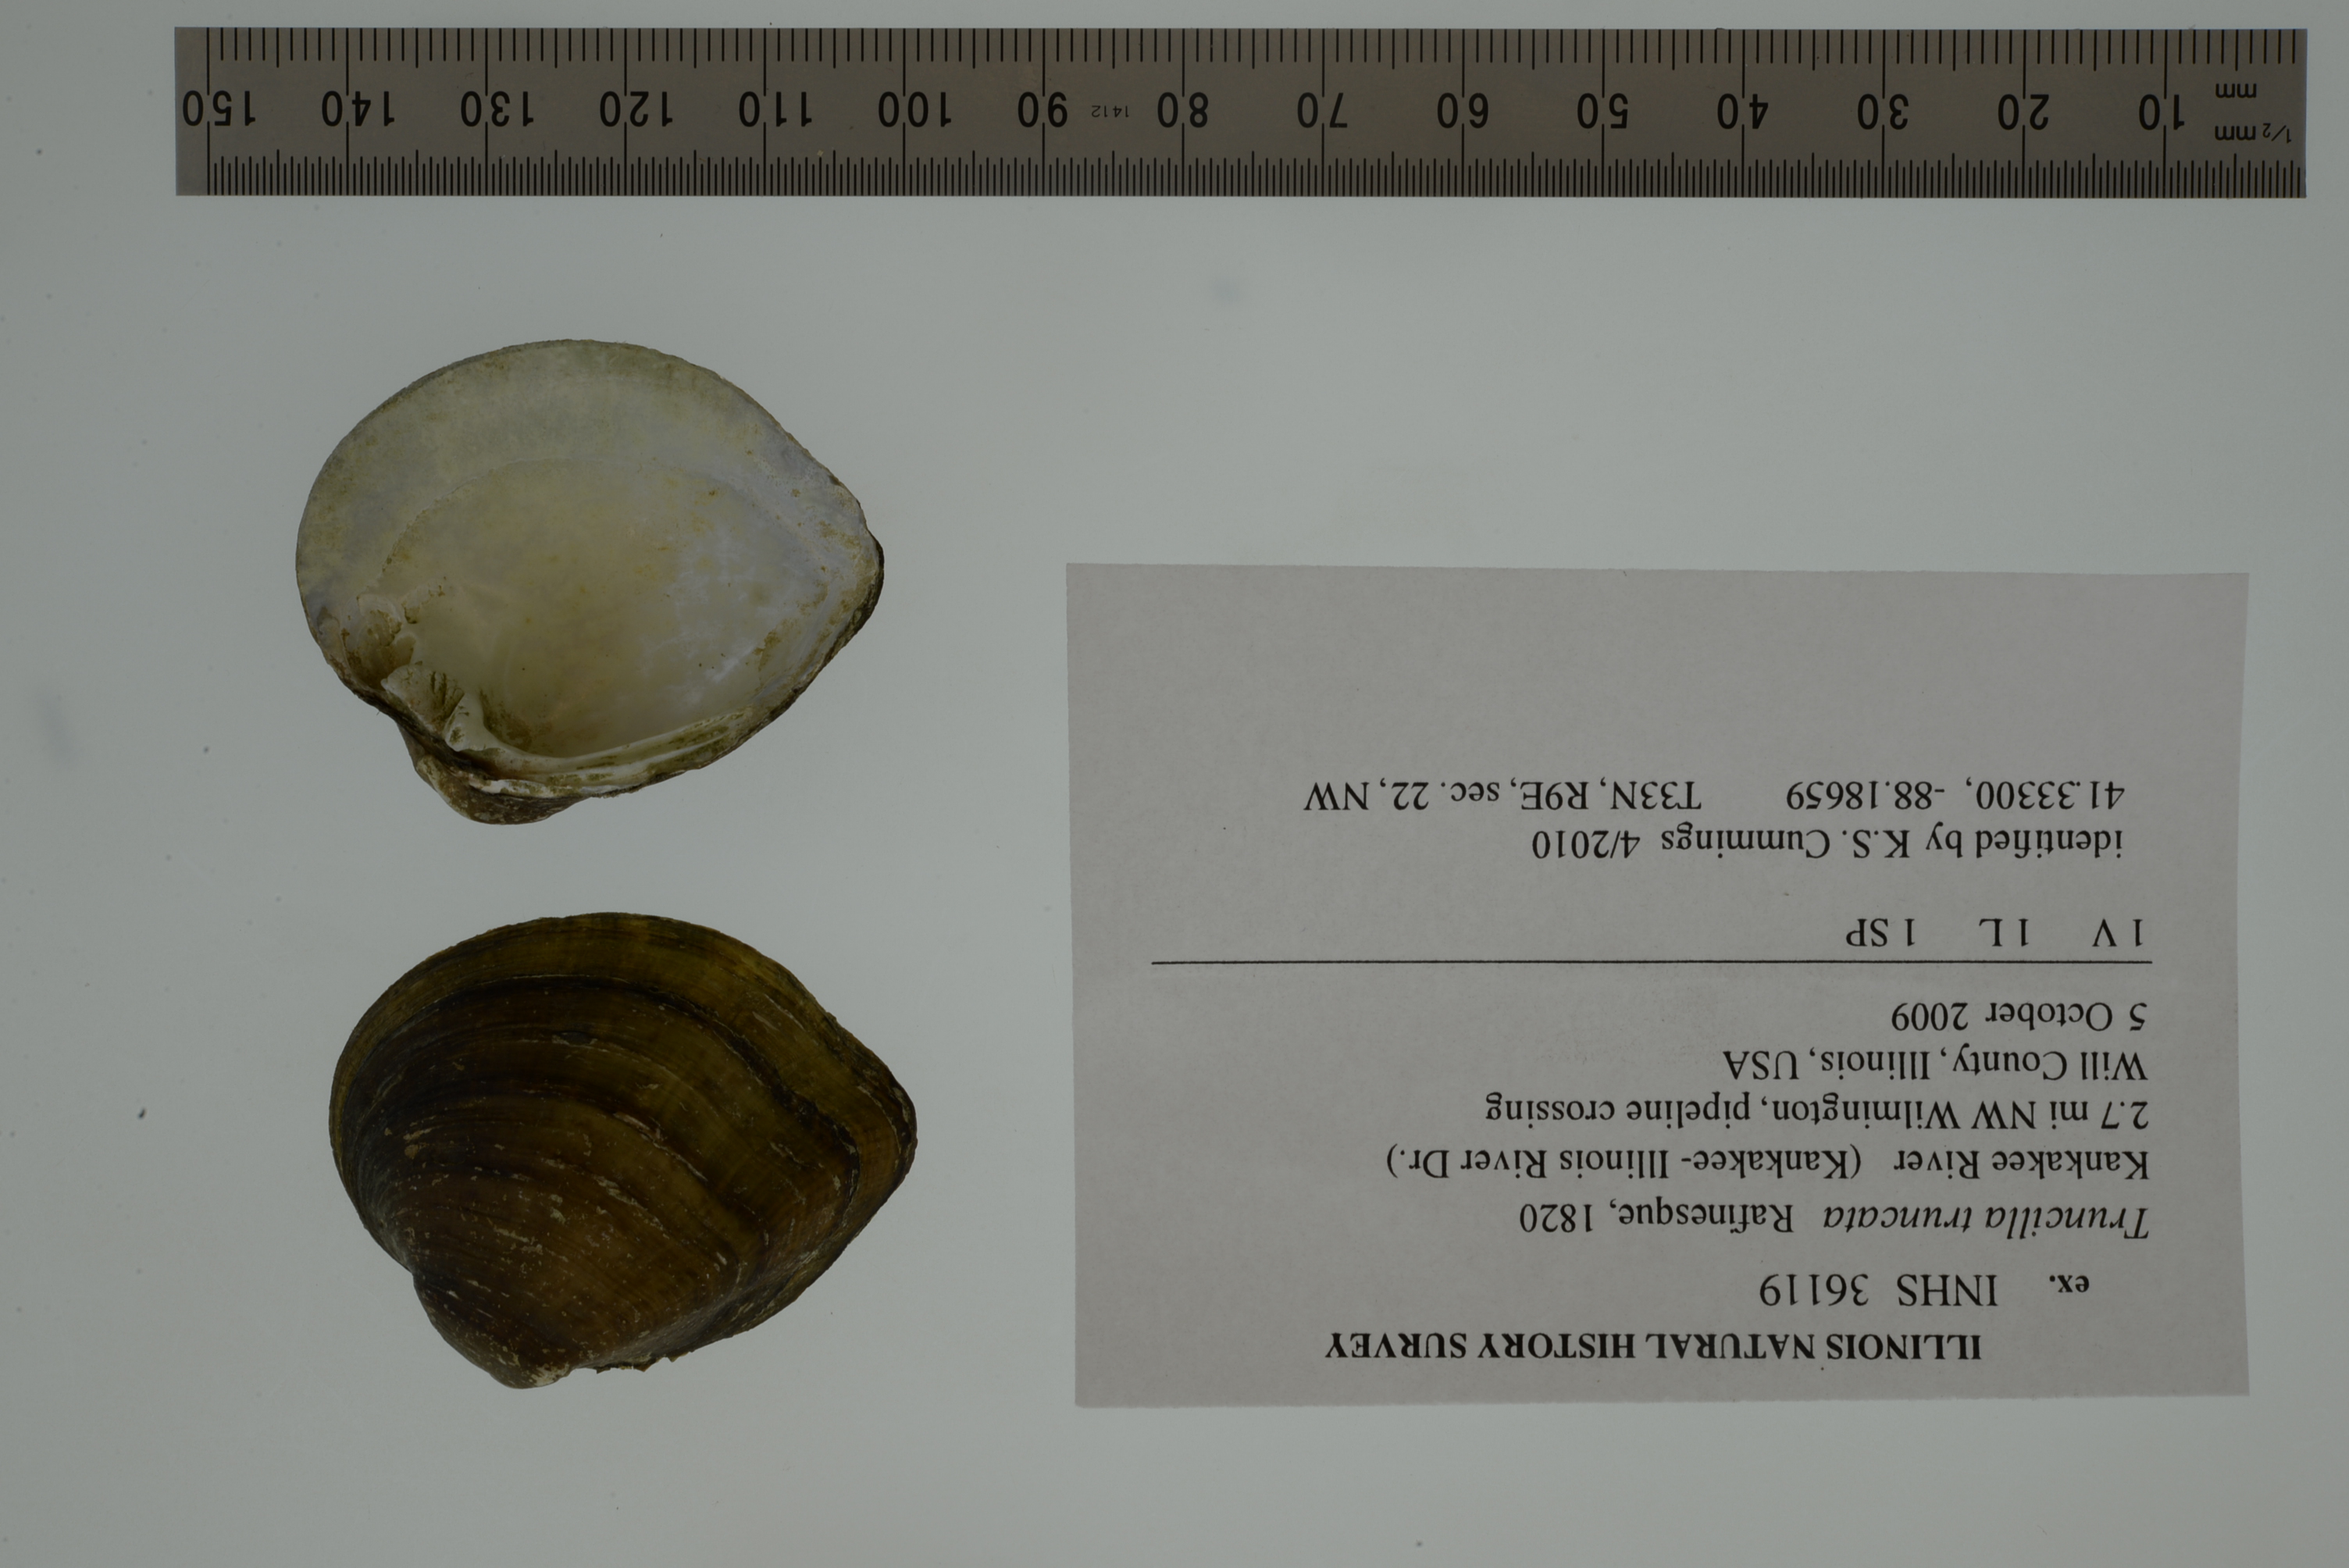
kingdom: Animalia
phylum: Mollusca
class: Bivalvia
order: Unionida
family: Unionidae
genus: Truncilla
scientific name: Truncilla truncata
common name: Deertoe
